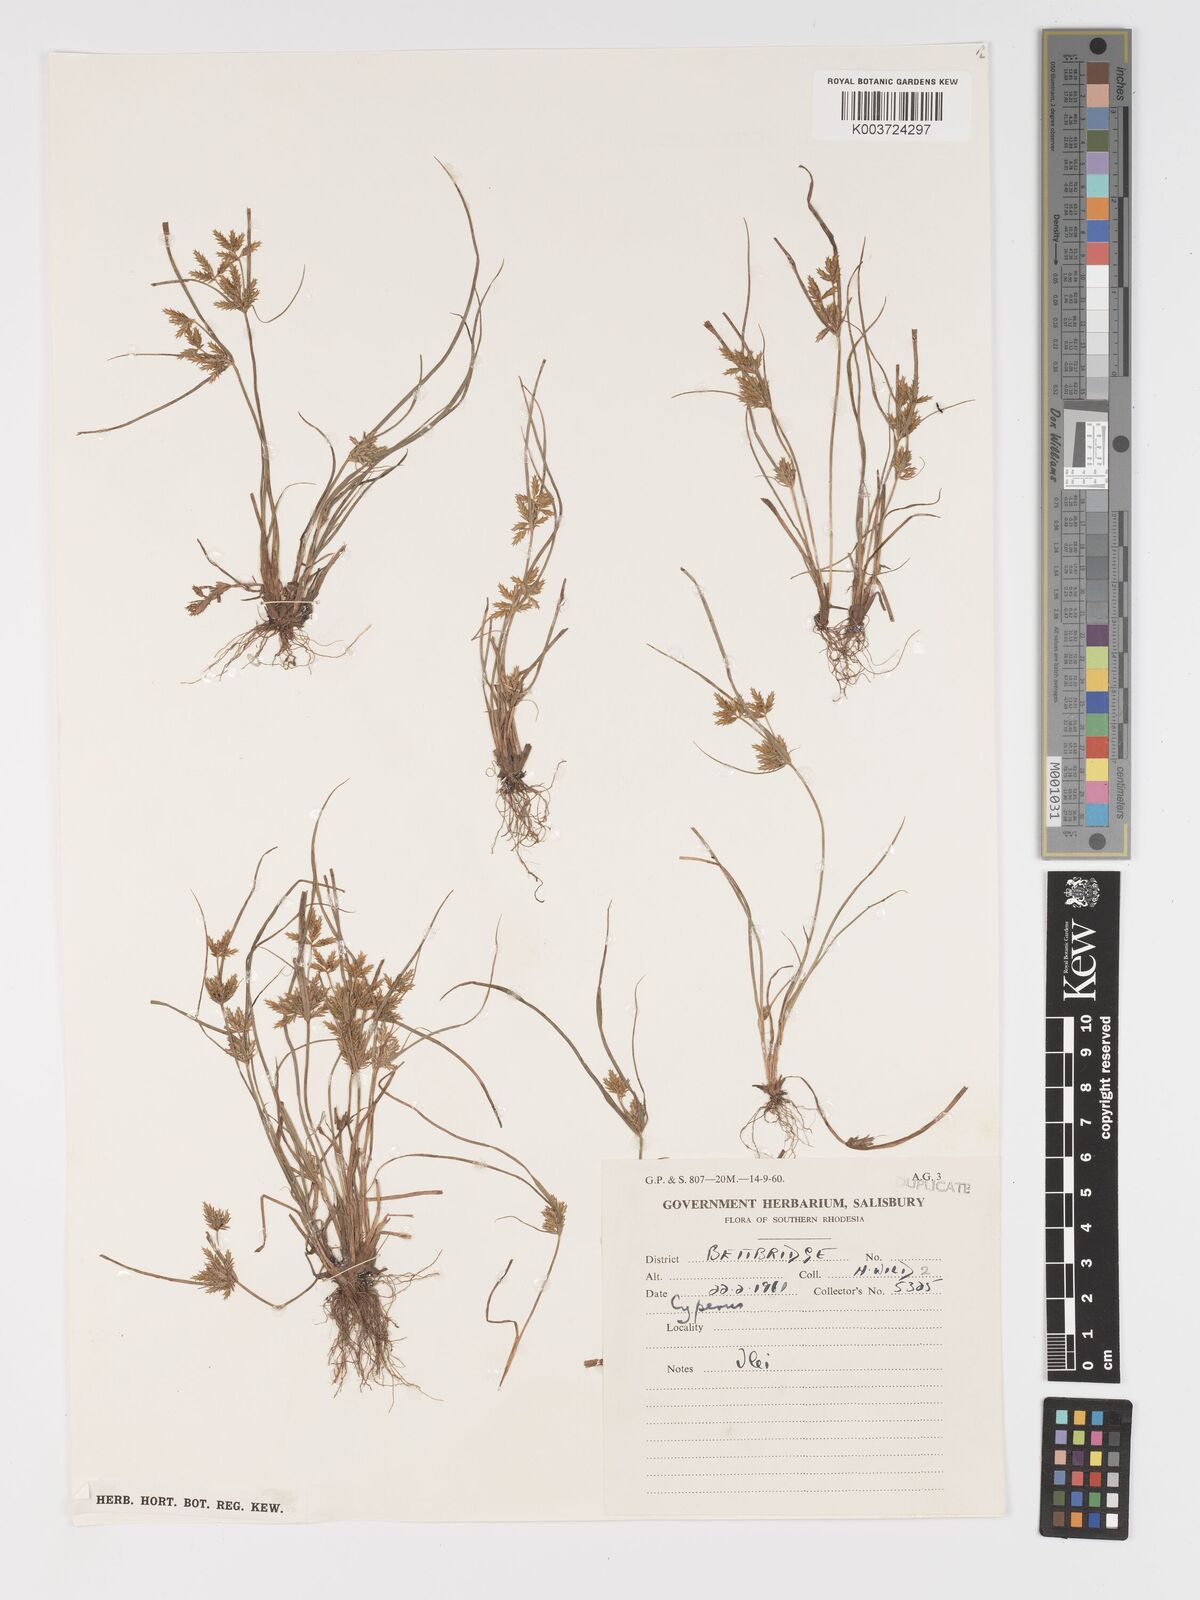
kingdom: Plantae
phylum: Tracheophyta
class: Liliopsida
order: Poales
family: Cyperaceae
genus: Cyperus
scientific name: Cyperus
